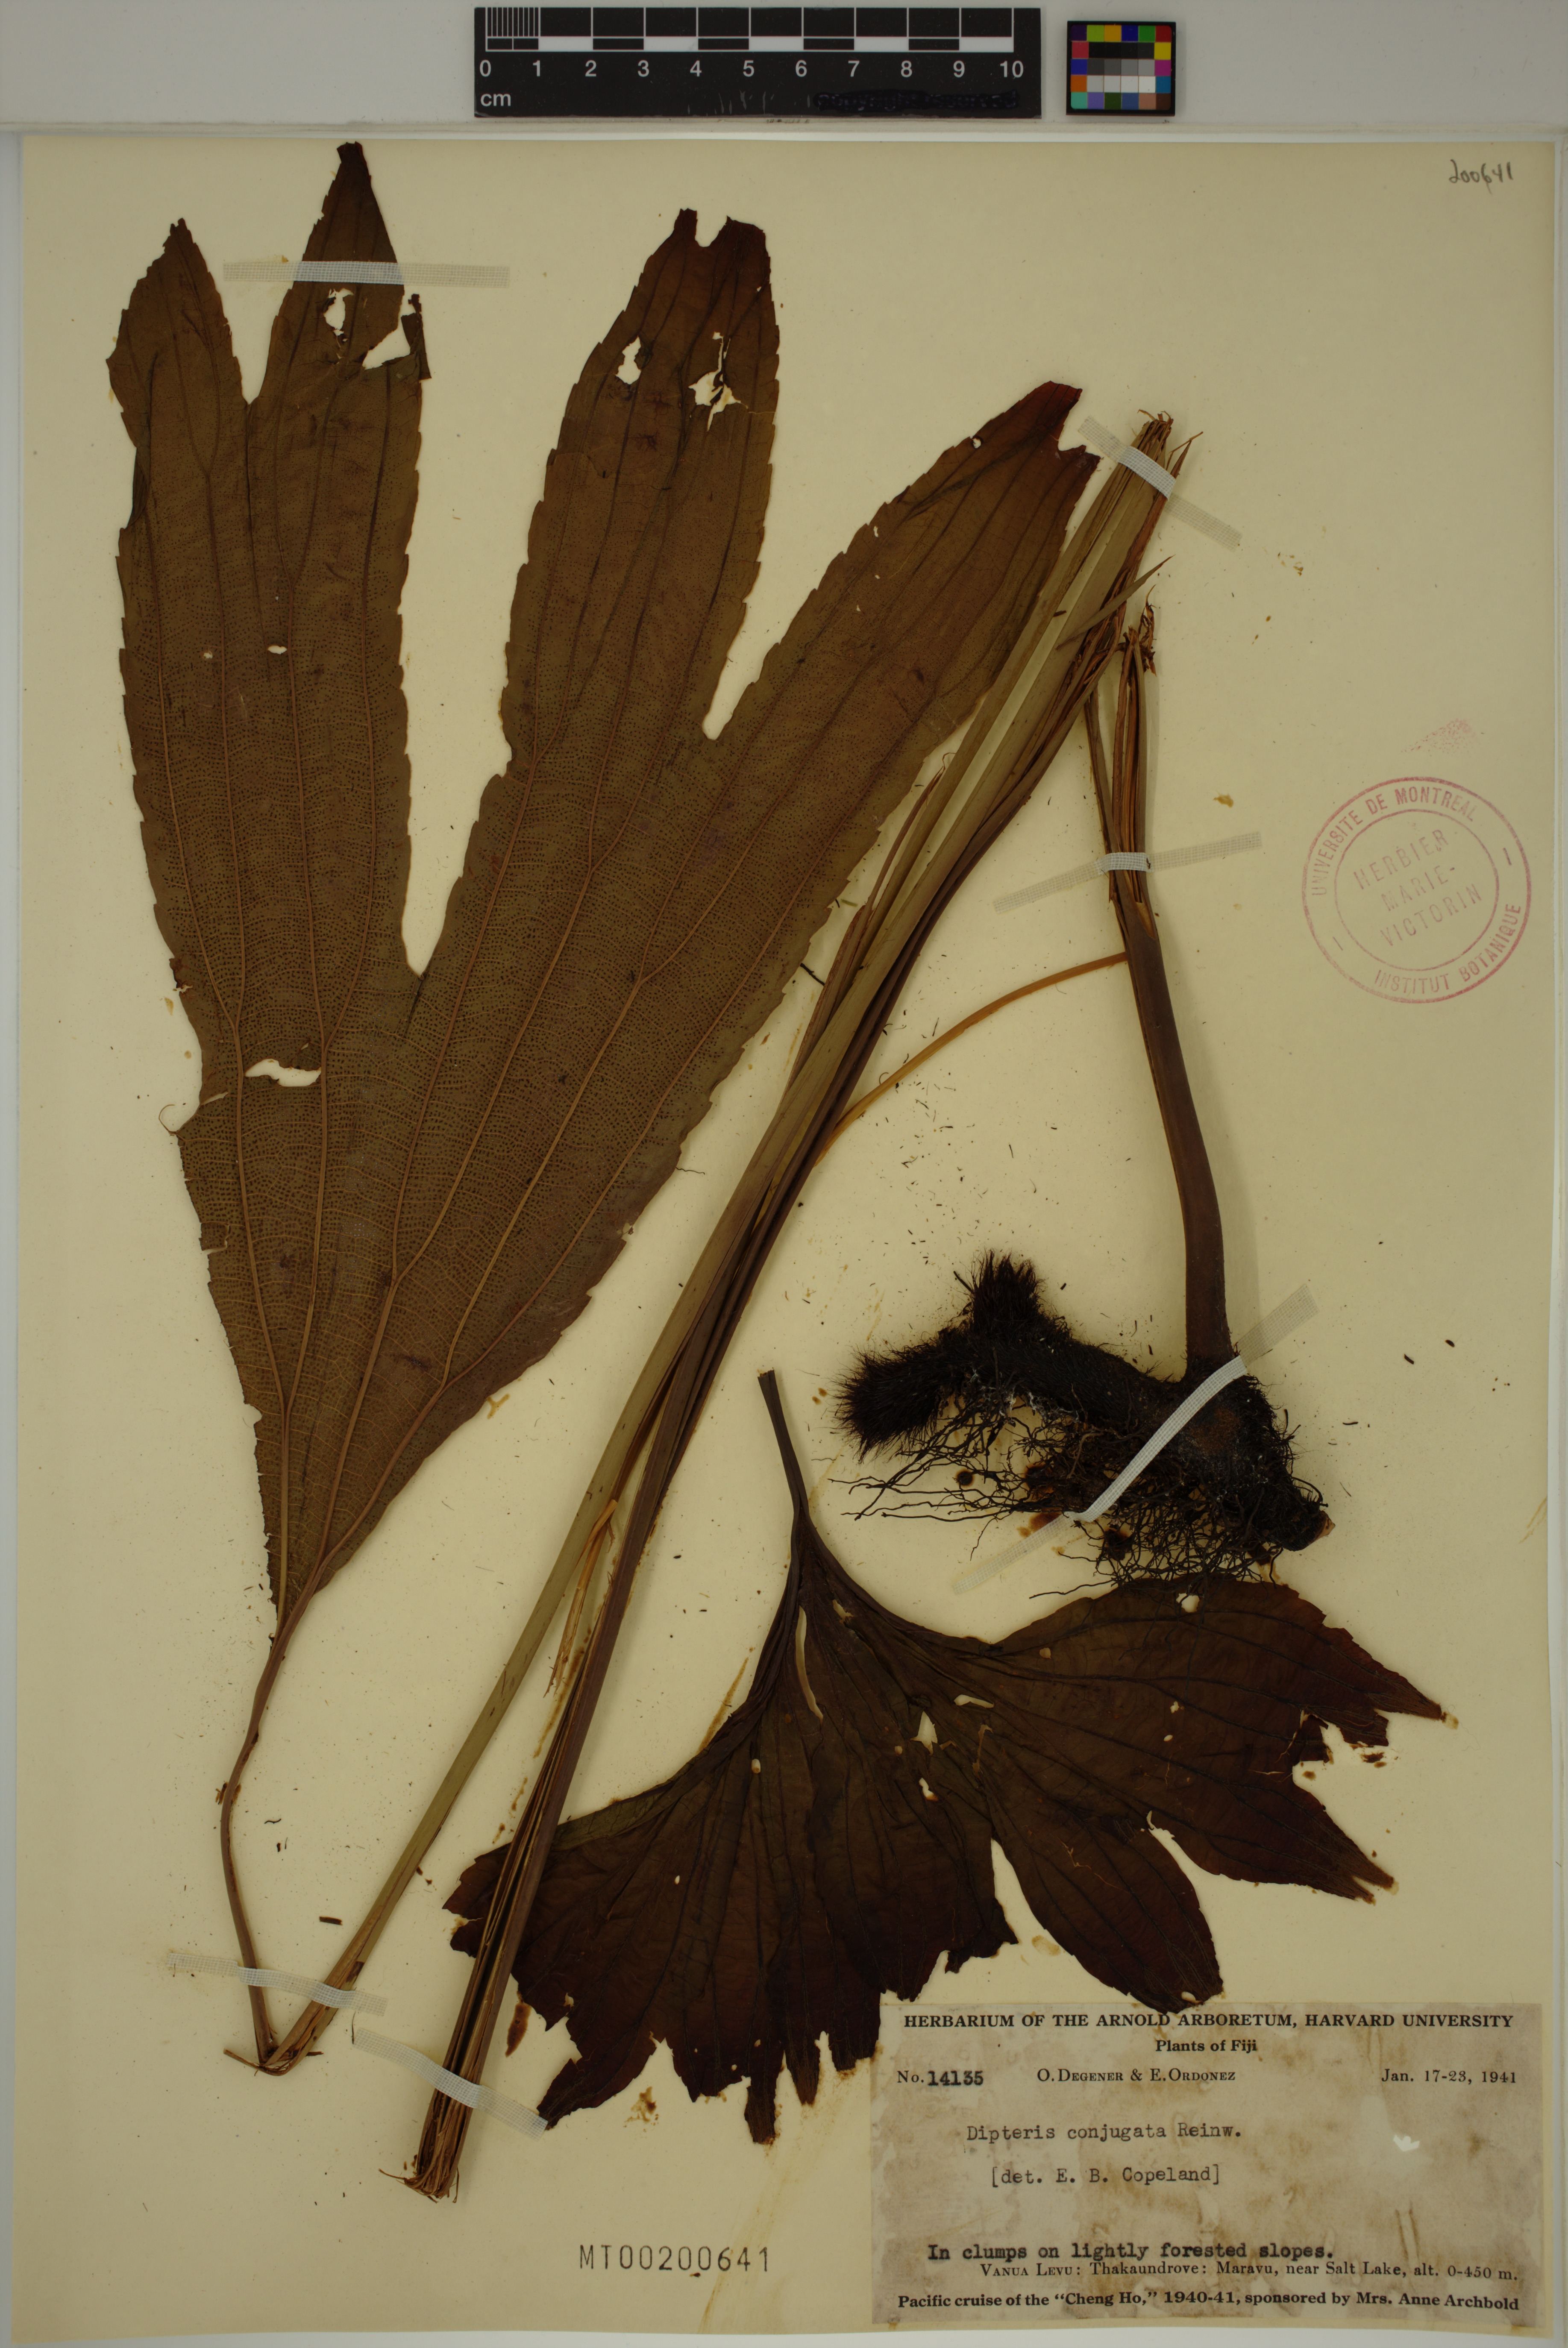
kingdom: Plantae
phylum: Tracheophyta
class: Polypodiopsida
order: Gleicheniales
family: Dipteridaceae
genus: Dipteris
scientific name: Dipteris conjugata
